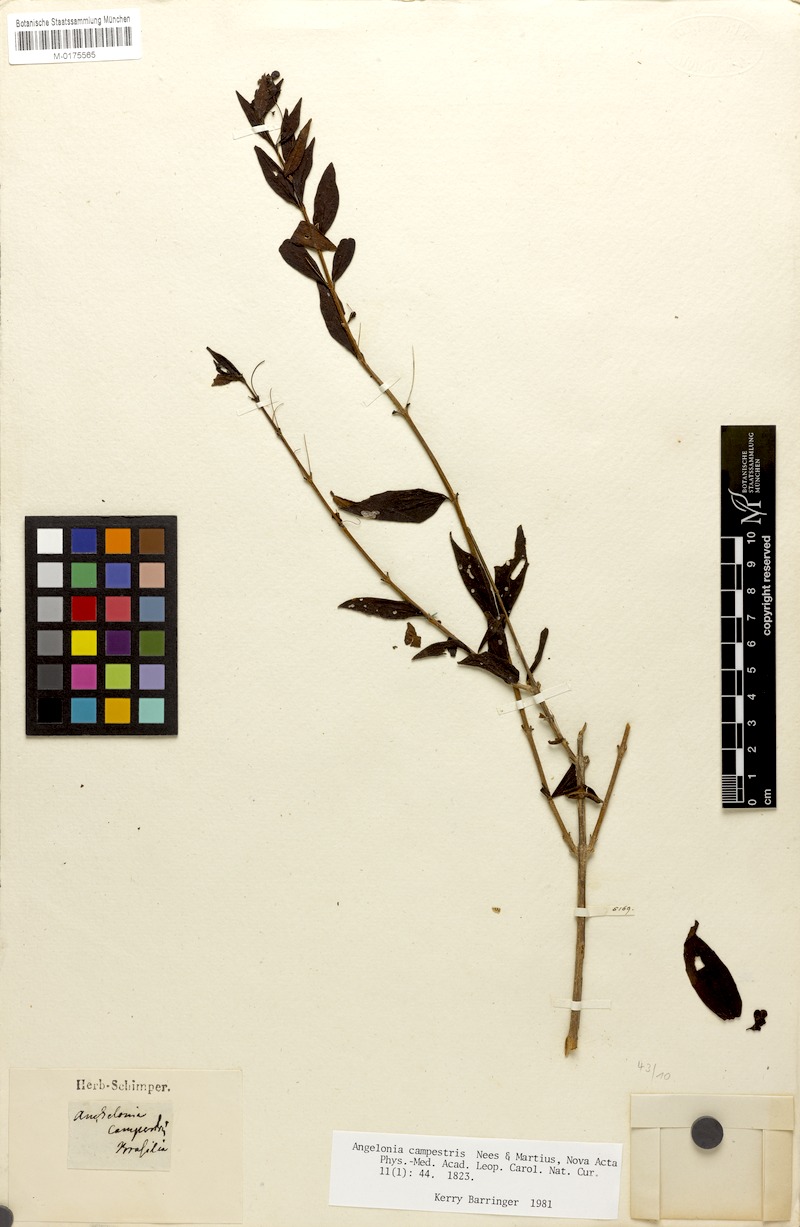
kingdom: Plantae
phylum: Tracheophyta
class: Magnoliopsida
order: Lamiales
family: Plantaginaceae
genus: Angelonia
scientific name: Angelonia campestris
